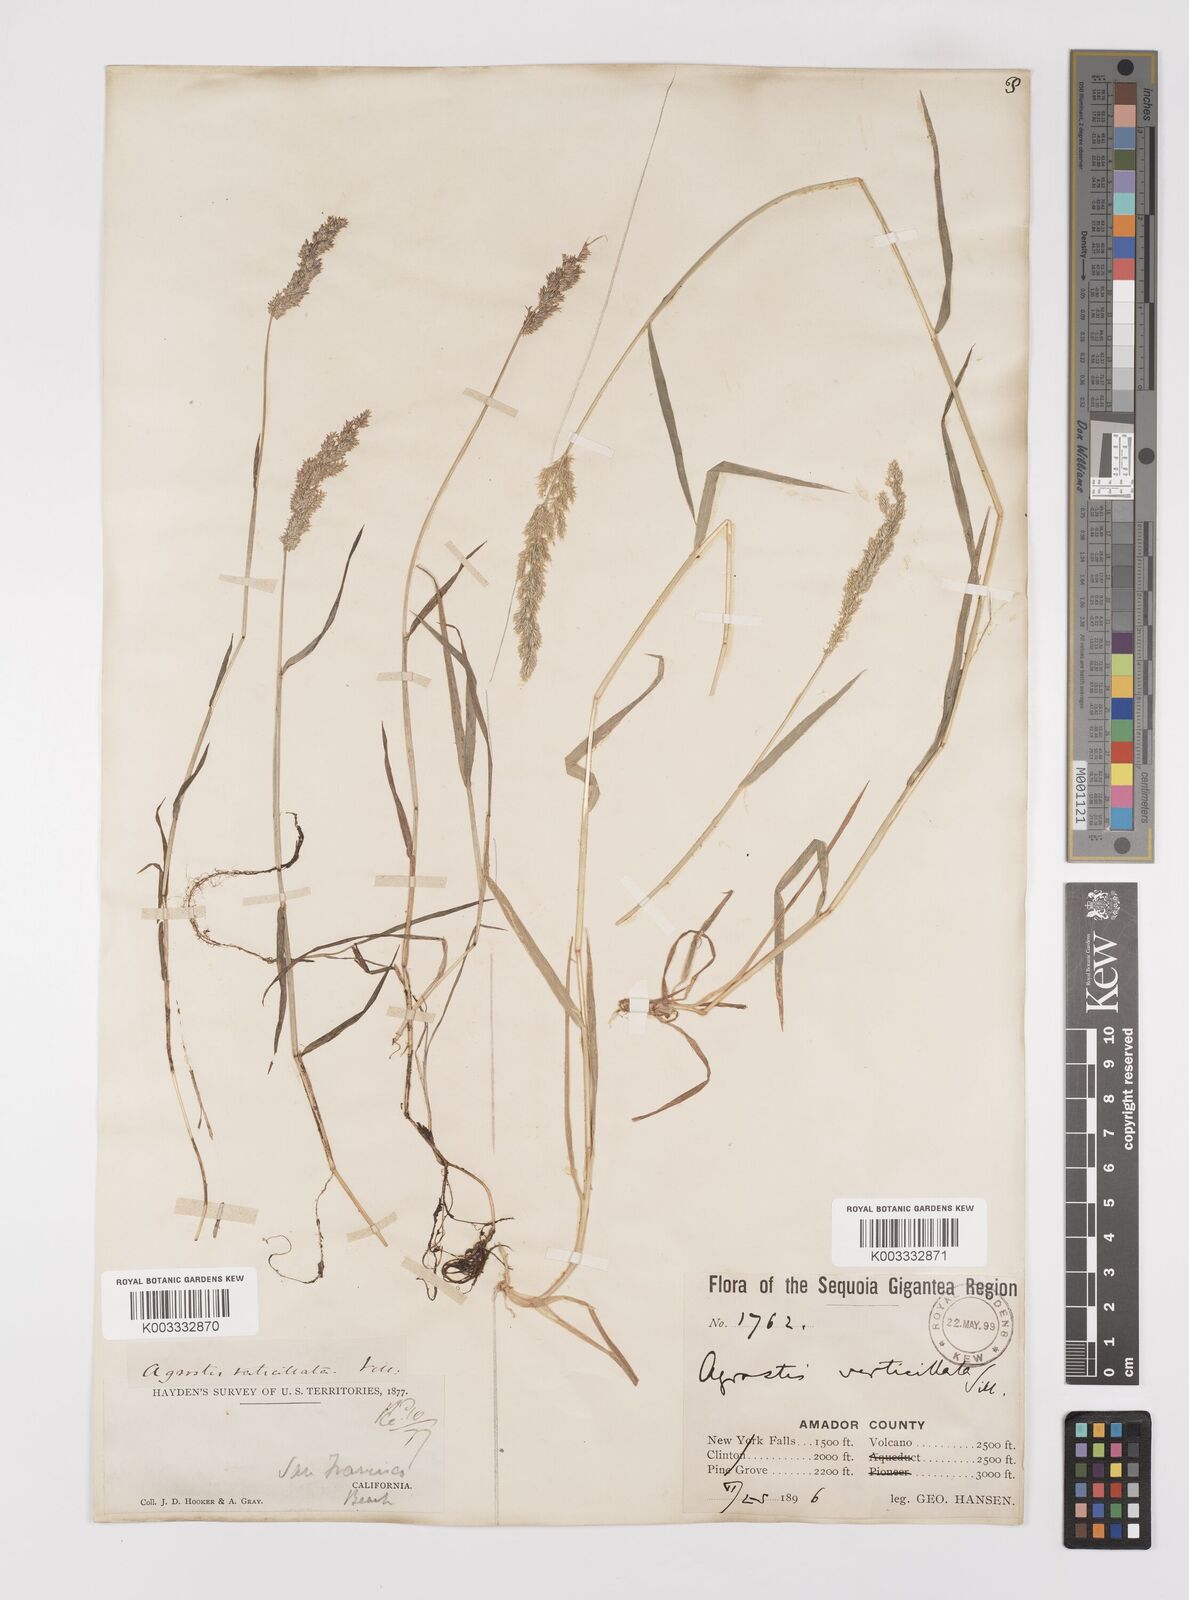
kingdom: Plantae
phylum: Tracheophyta
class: Liliopsida
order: Poales
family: Poaceae
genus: Polypogon
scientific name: Polypogon viridis
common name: Water bent
